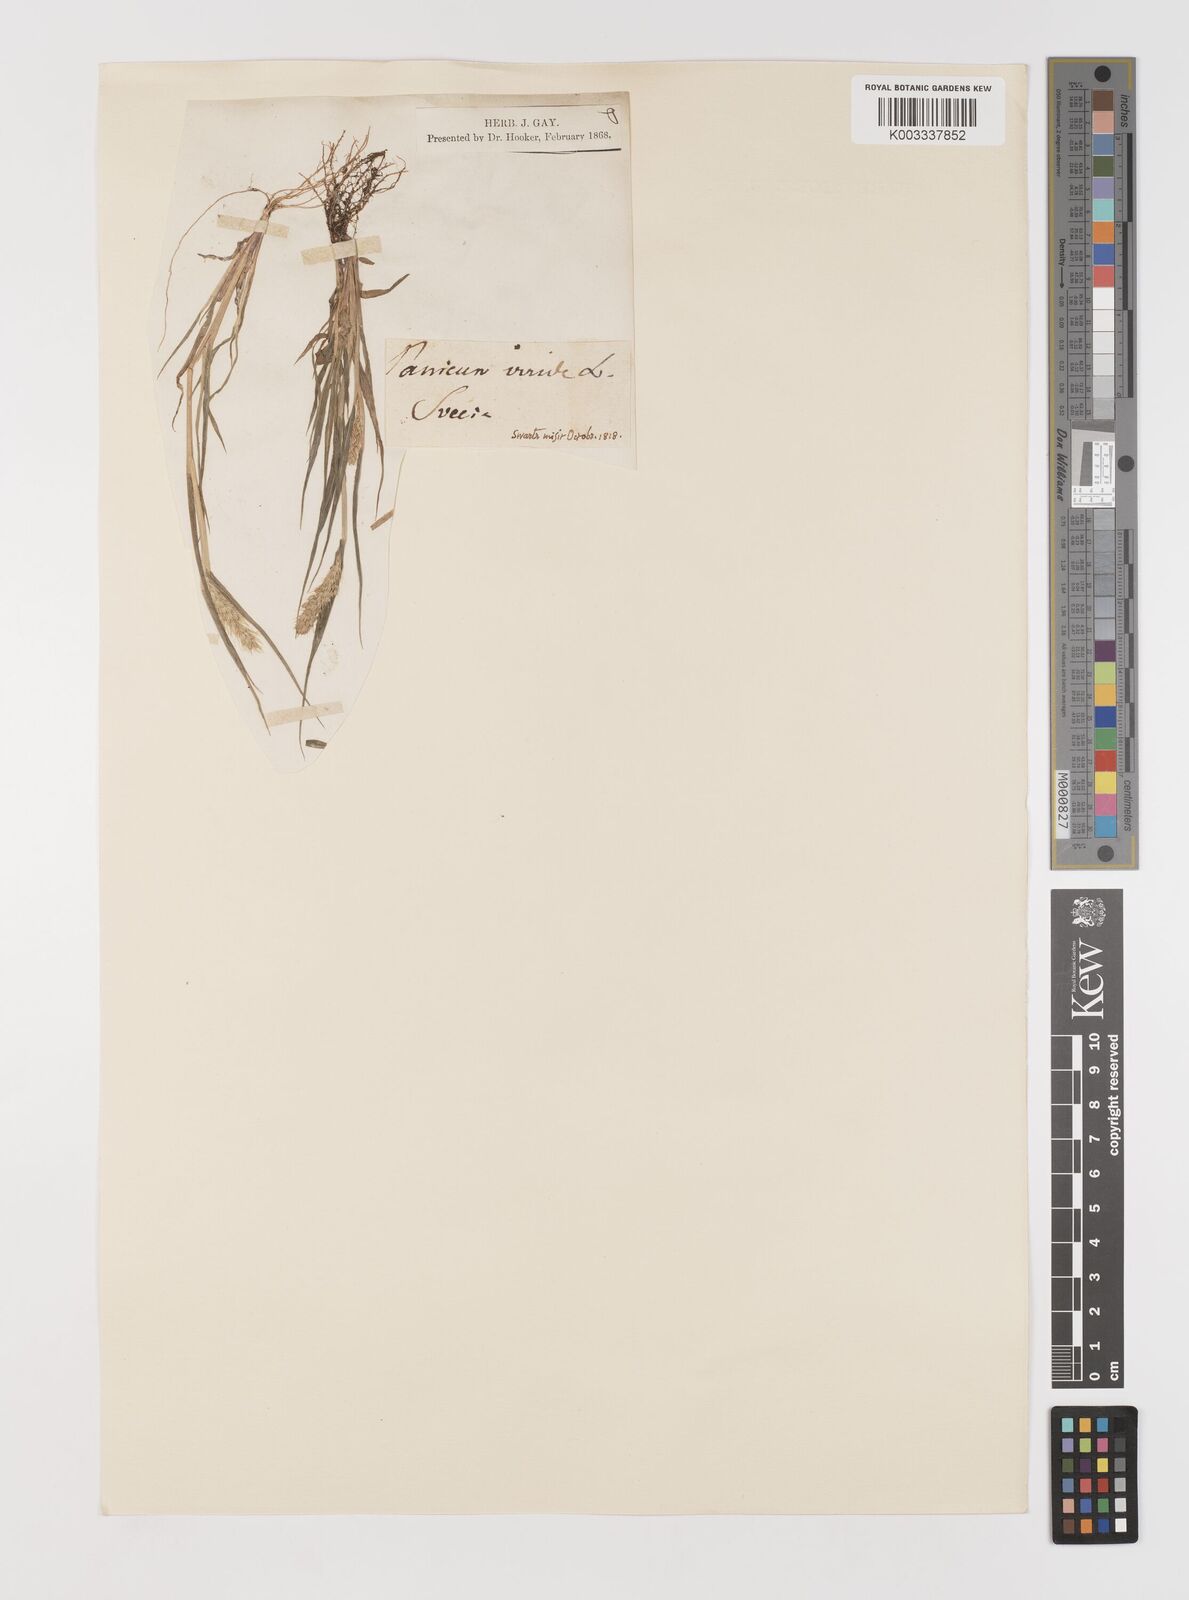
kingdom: Plantae
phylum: Tracheophyta
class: Liliopsida
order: Poales
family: Poaceae
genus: Setaria
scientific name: Setaria viridis
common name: Green bristlegrass
